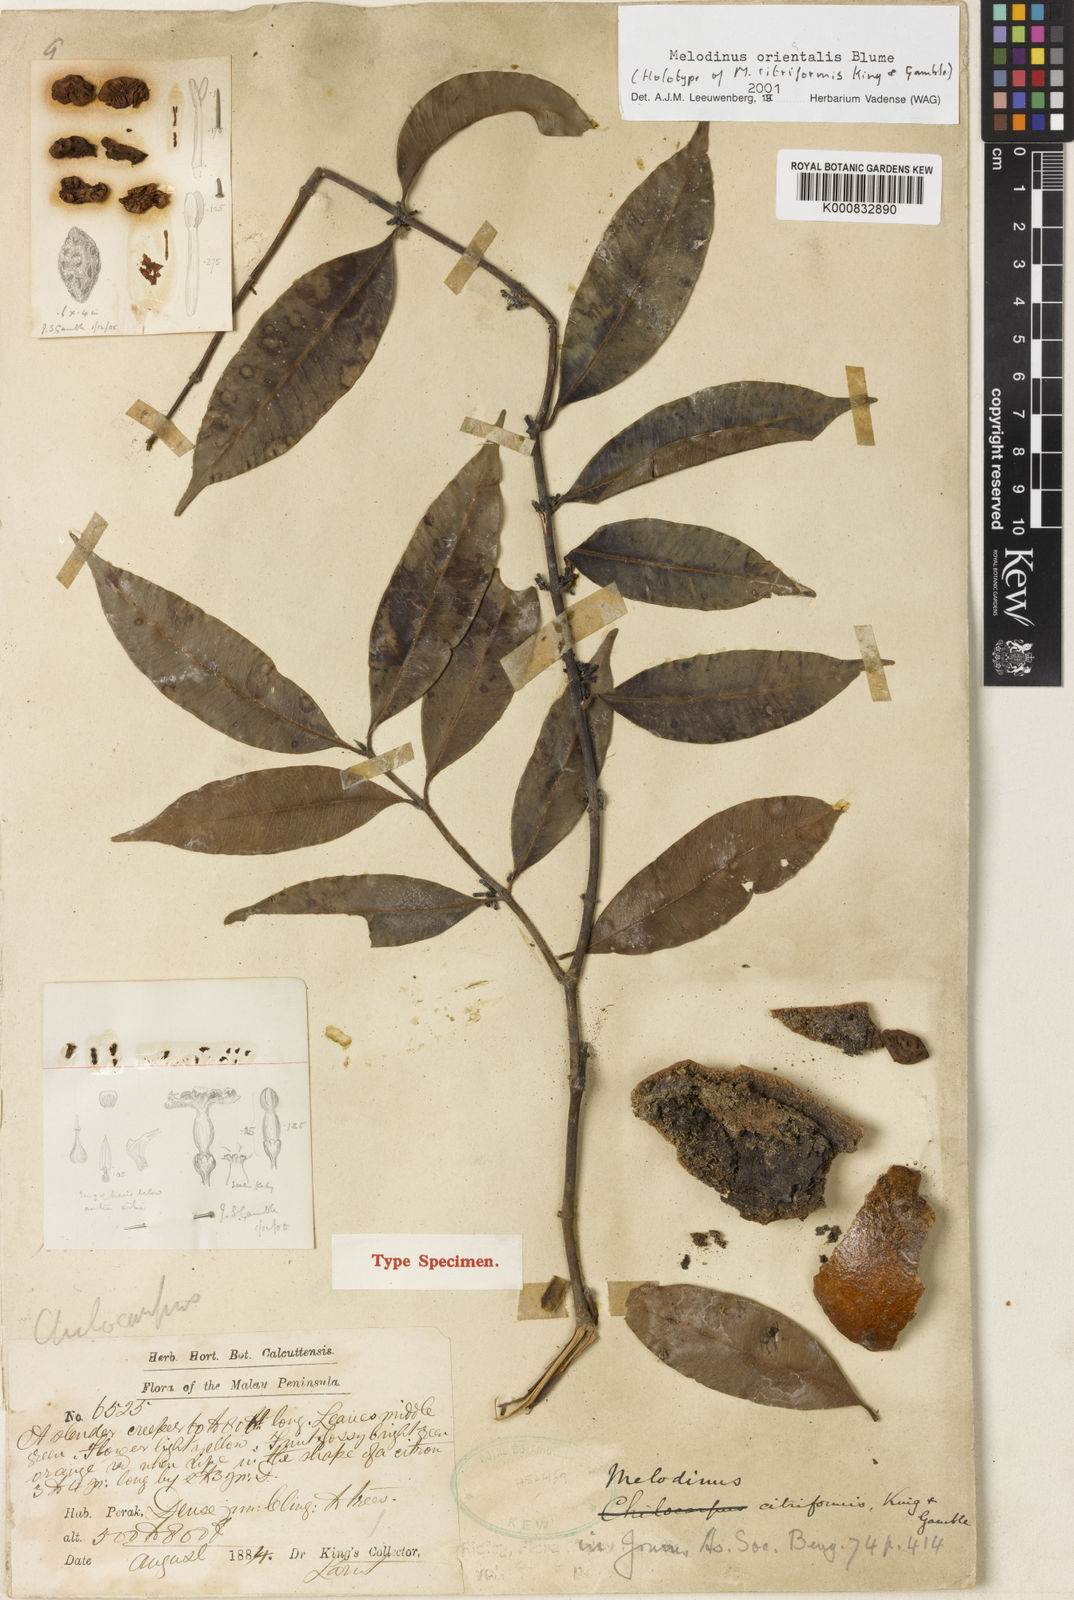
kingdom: Plantae
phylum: Tracheophyta
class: Magnoliopsida
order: Gentianales
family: Apocynaceae
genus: Melodinus
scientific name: Melodinus orientalis
